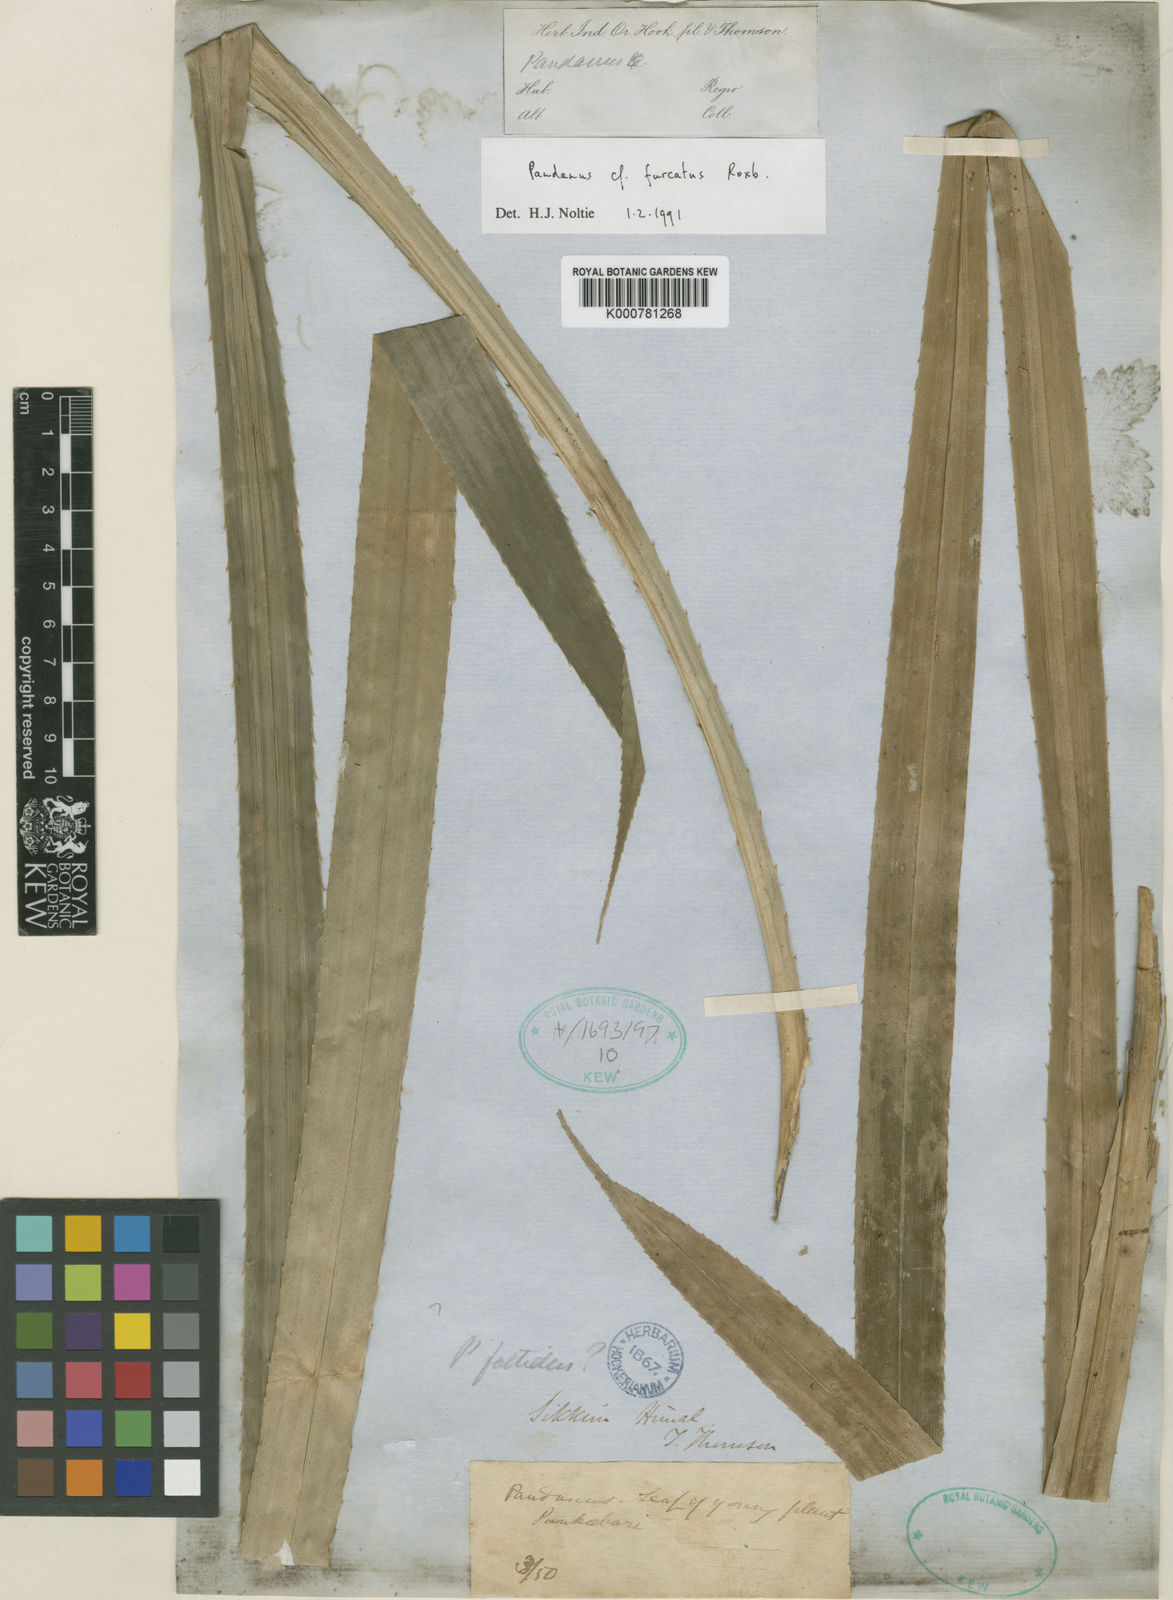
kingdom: Plantae
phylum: Tracheophyta
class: Liliopsida
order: Pandanales
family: Pandanaceae
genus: Pandanus
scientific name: Pandanus unguifer
